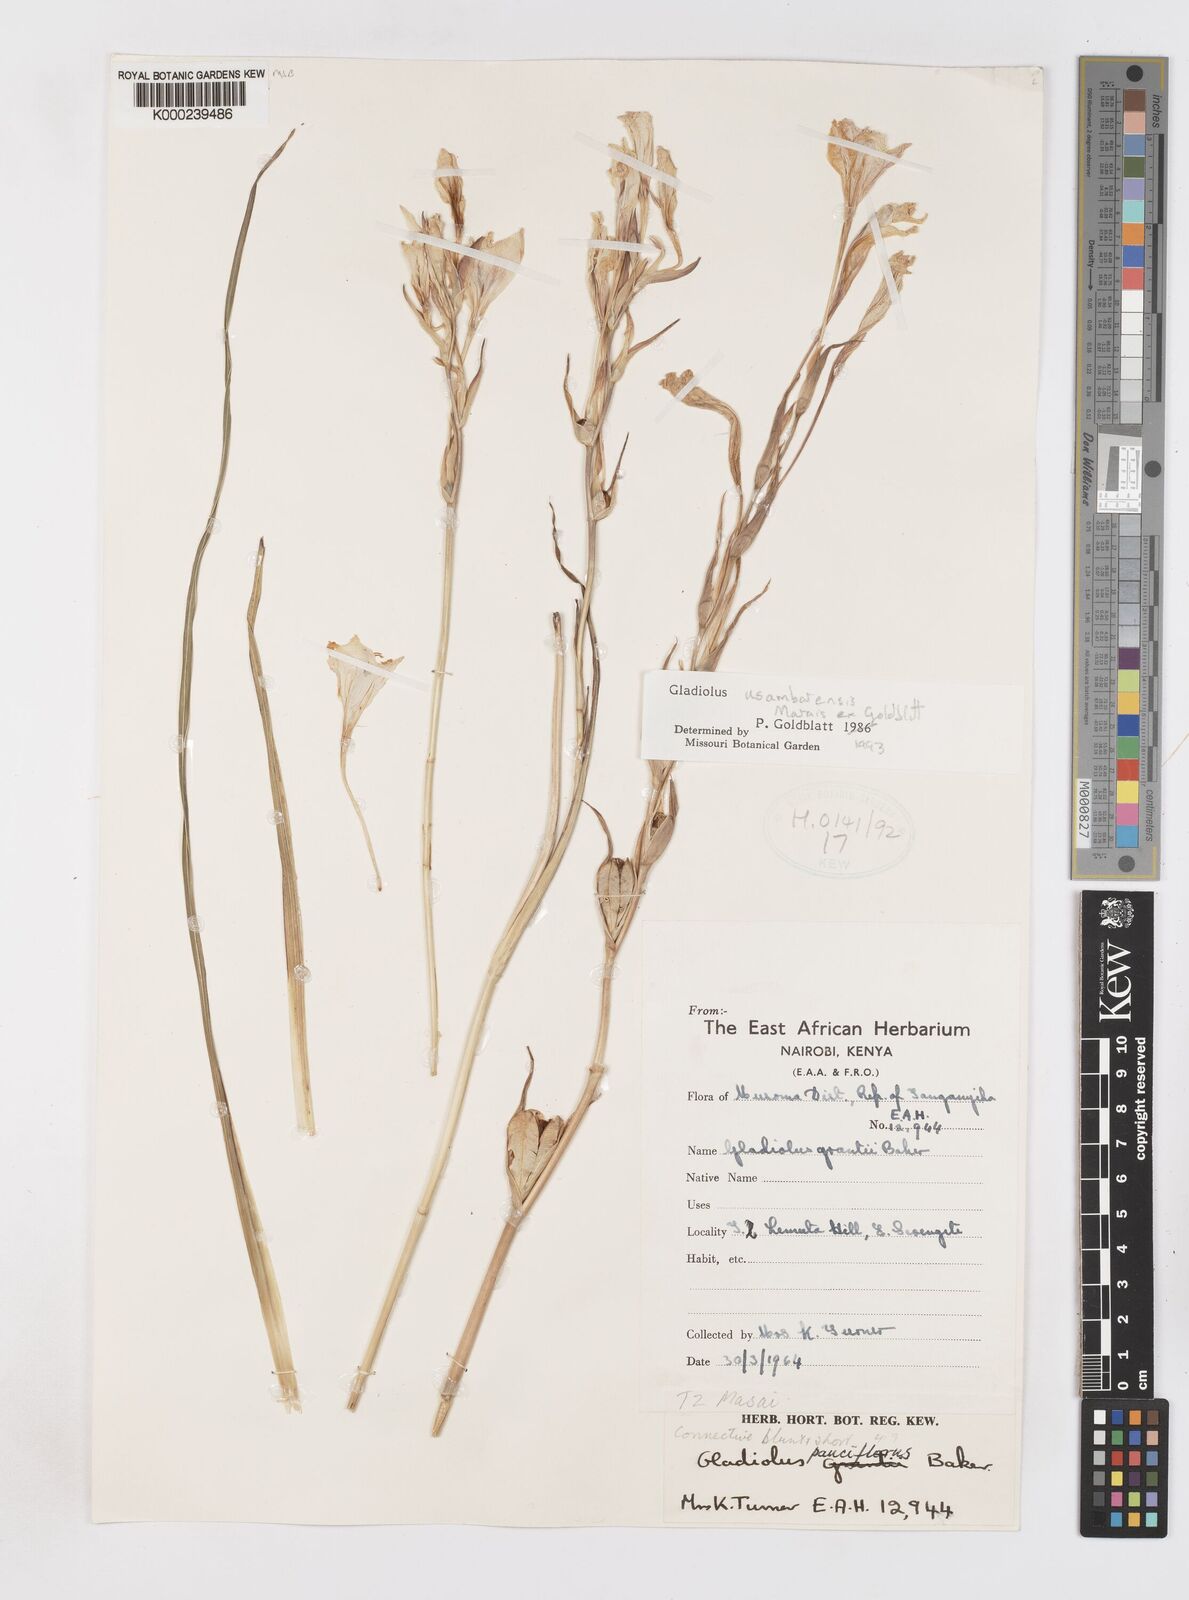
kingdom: Plantae
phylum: Tracheophyta
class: Liliopsida
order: Asparagales
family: Iridaceae
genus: Gladiolus
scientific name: Gladiolus usambarensis
